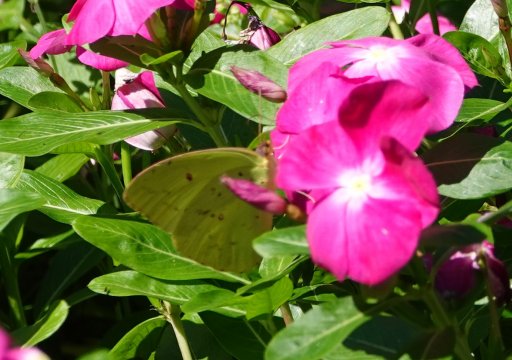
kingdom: Animalia
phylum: Arthropoda
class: Insecta
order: Lepidoptera
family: Pieridae
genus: Phoebis
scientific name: Phoebis sennae
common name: Cloudless Sulphur
